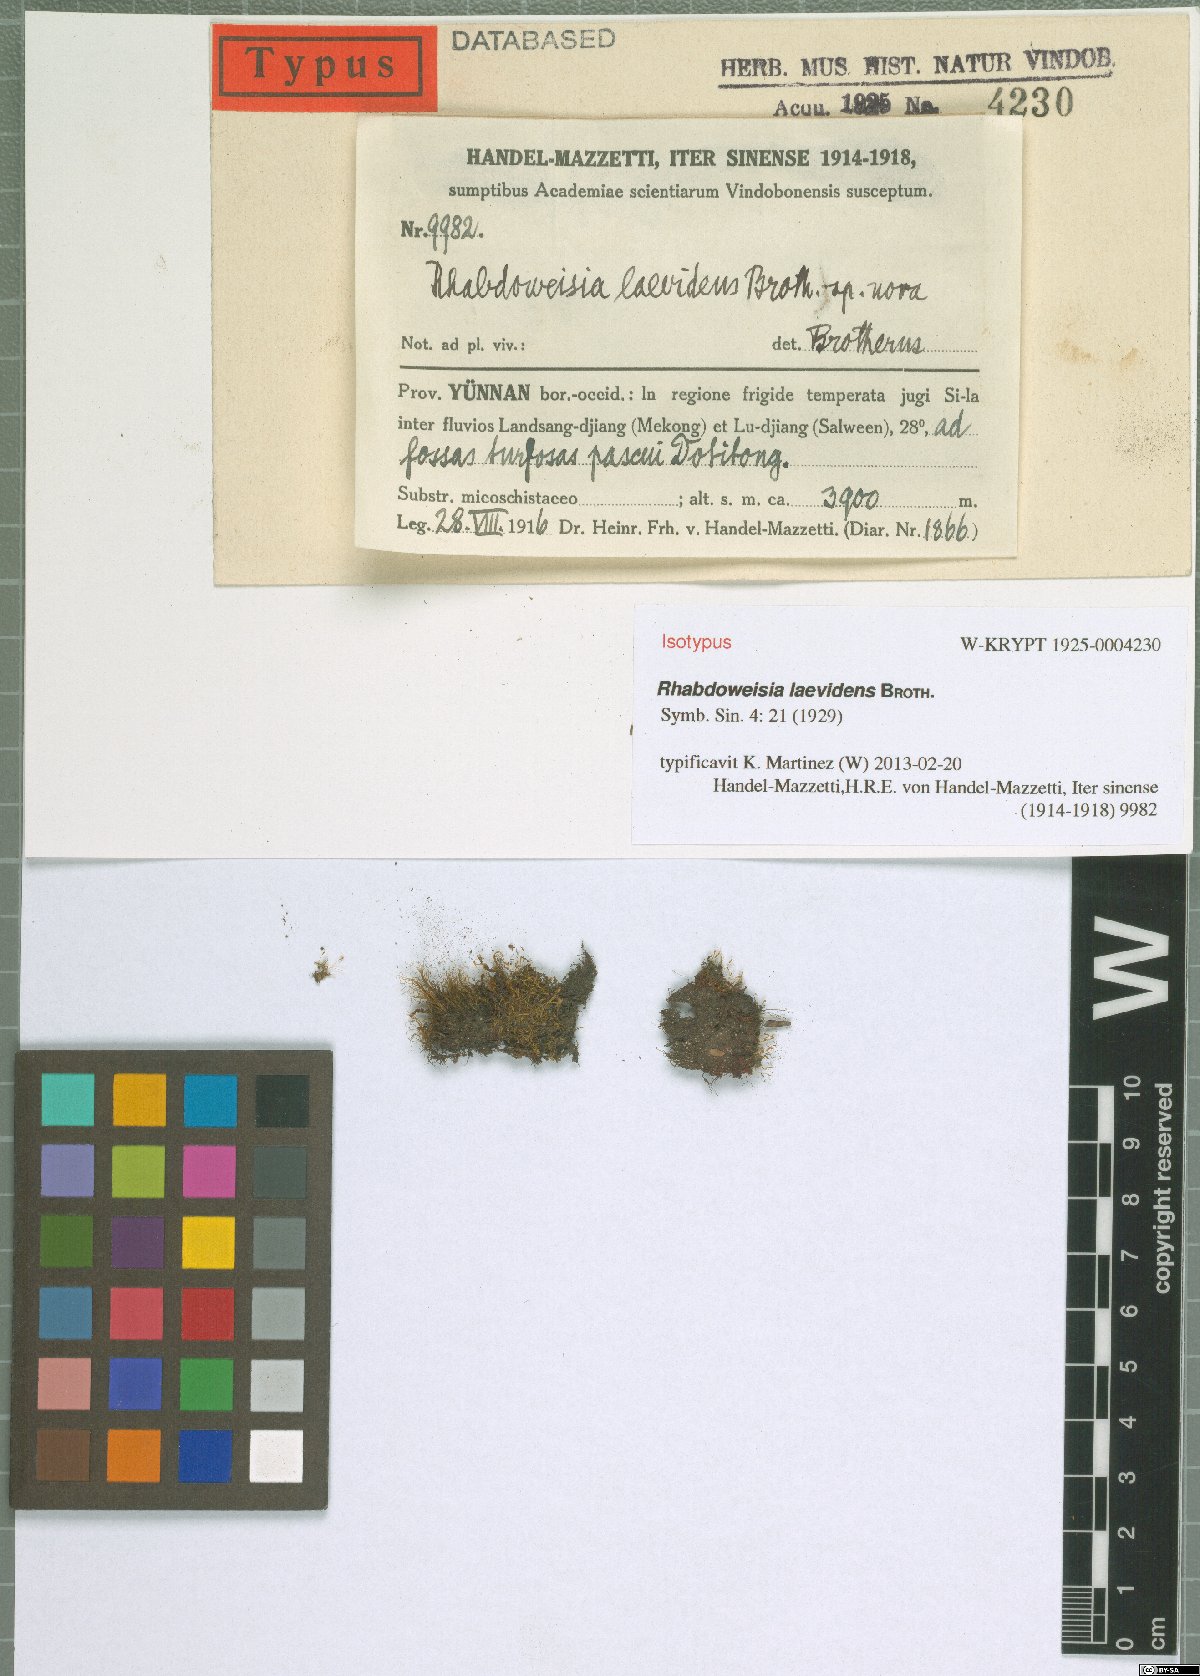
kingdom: Plantae
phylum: Bryophyta
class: Bryopsida
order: Dicranales
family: Rhabdoweisiaceae
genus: Rhabdoweisia
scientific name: Rhabdoweisia crenulata
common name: Greater streak-moss
